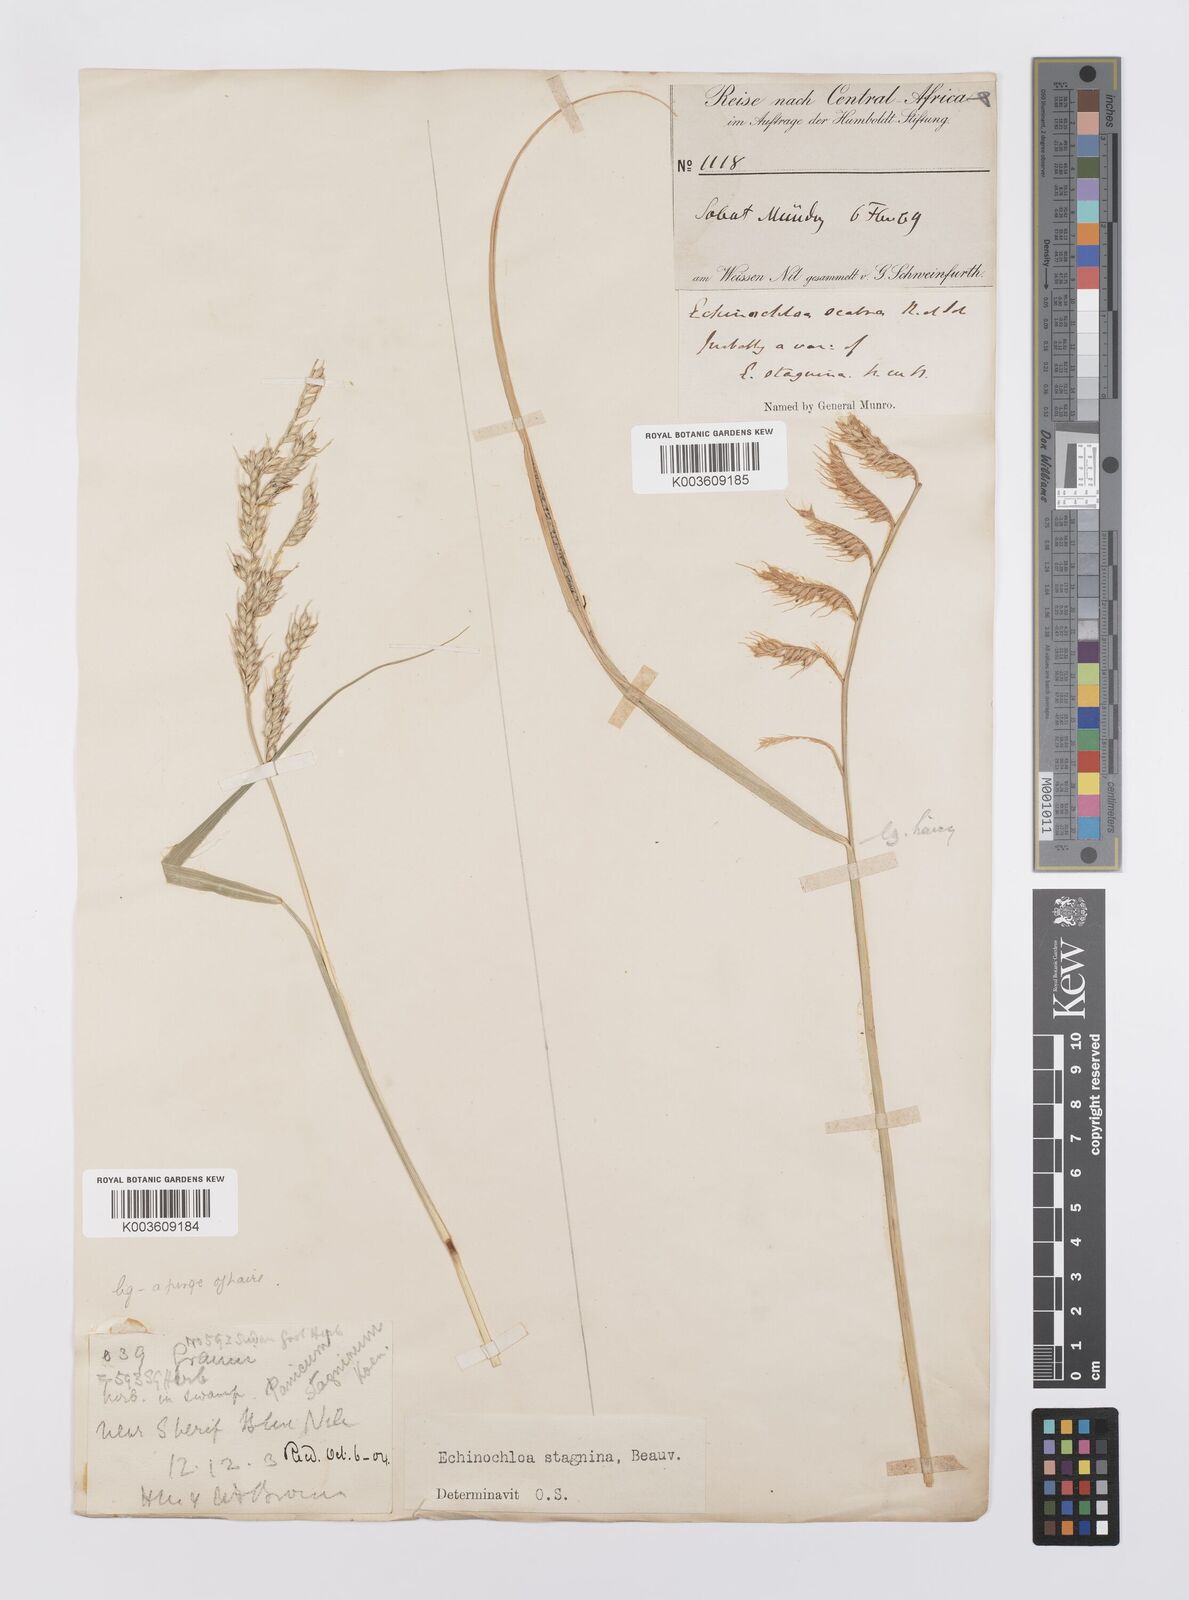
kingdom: Plantae
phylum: Tracheophyta
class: Liliopsida
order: Poales
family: Poaceae
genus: Echinochloa
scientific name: Echinochloa stagnina
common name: Burgu grass
